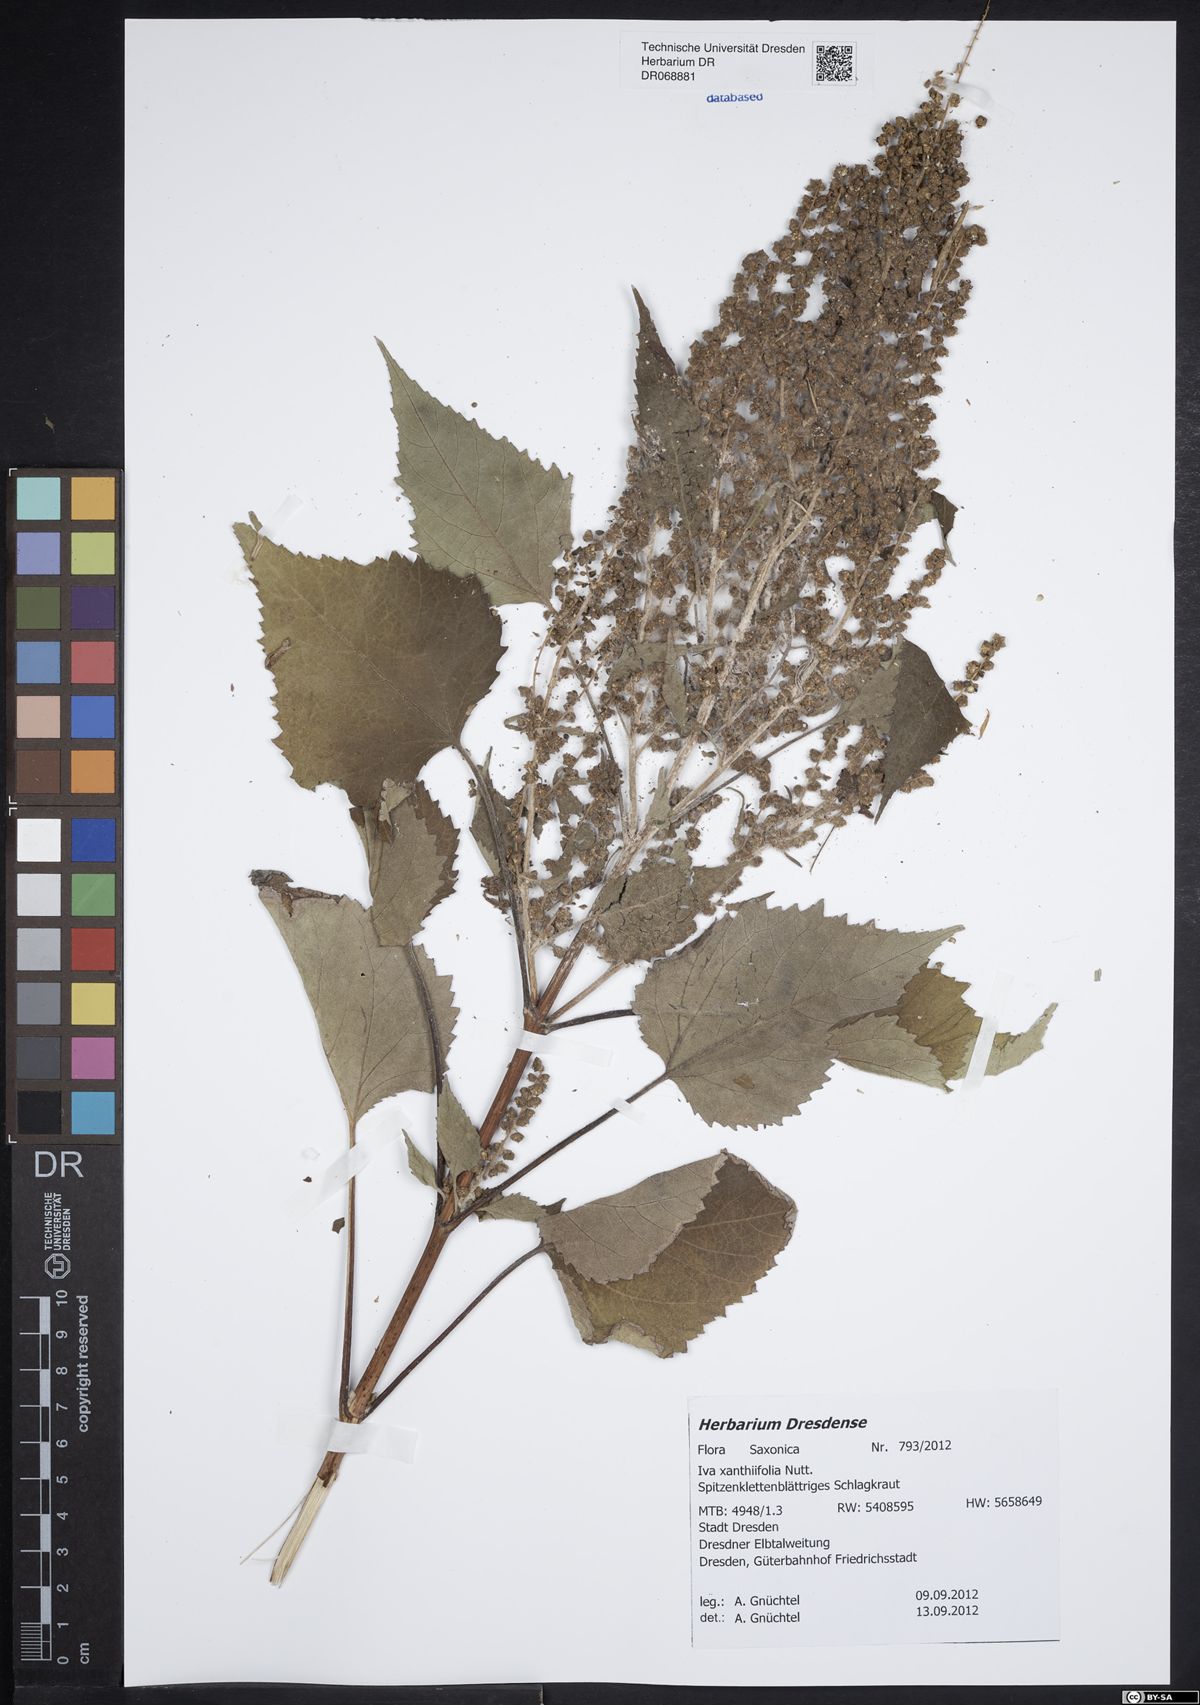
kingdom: Plantae
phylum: Tracheophyta
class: Magnoliopsida
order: Asterales
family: Asteraceae
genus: Cyclachaena
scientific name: Cyclachaena xanthiifolia
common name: Giant sumpweed
